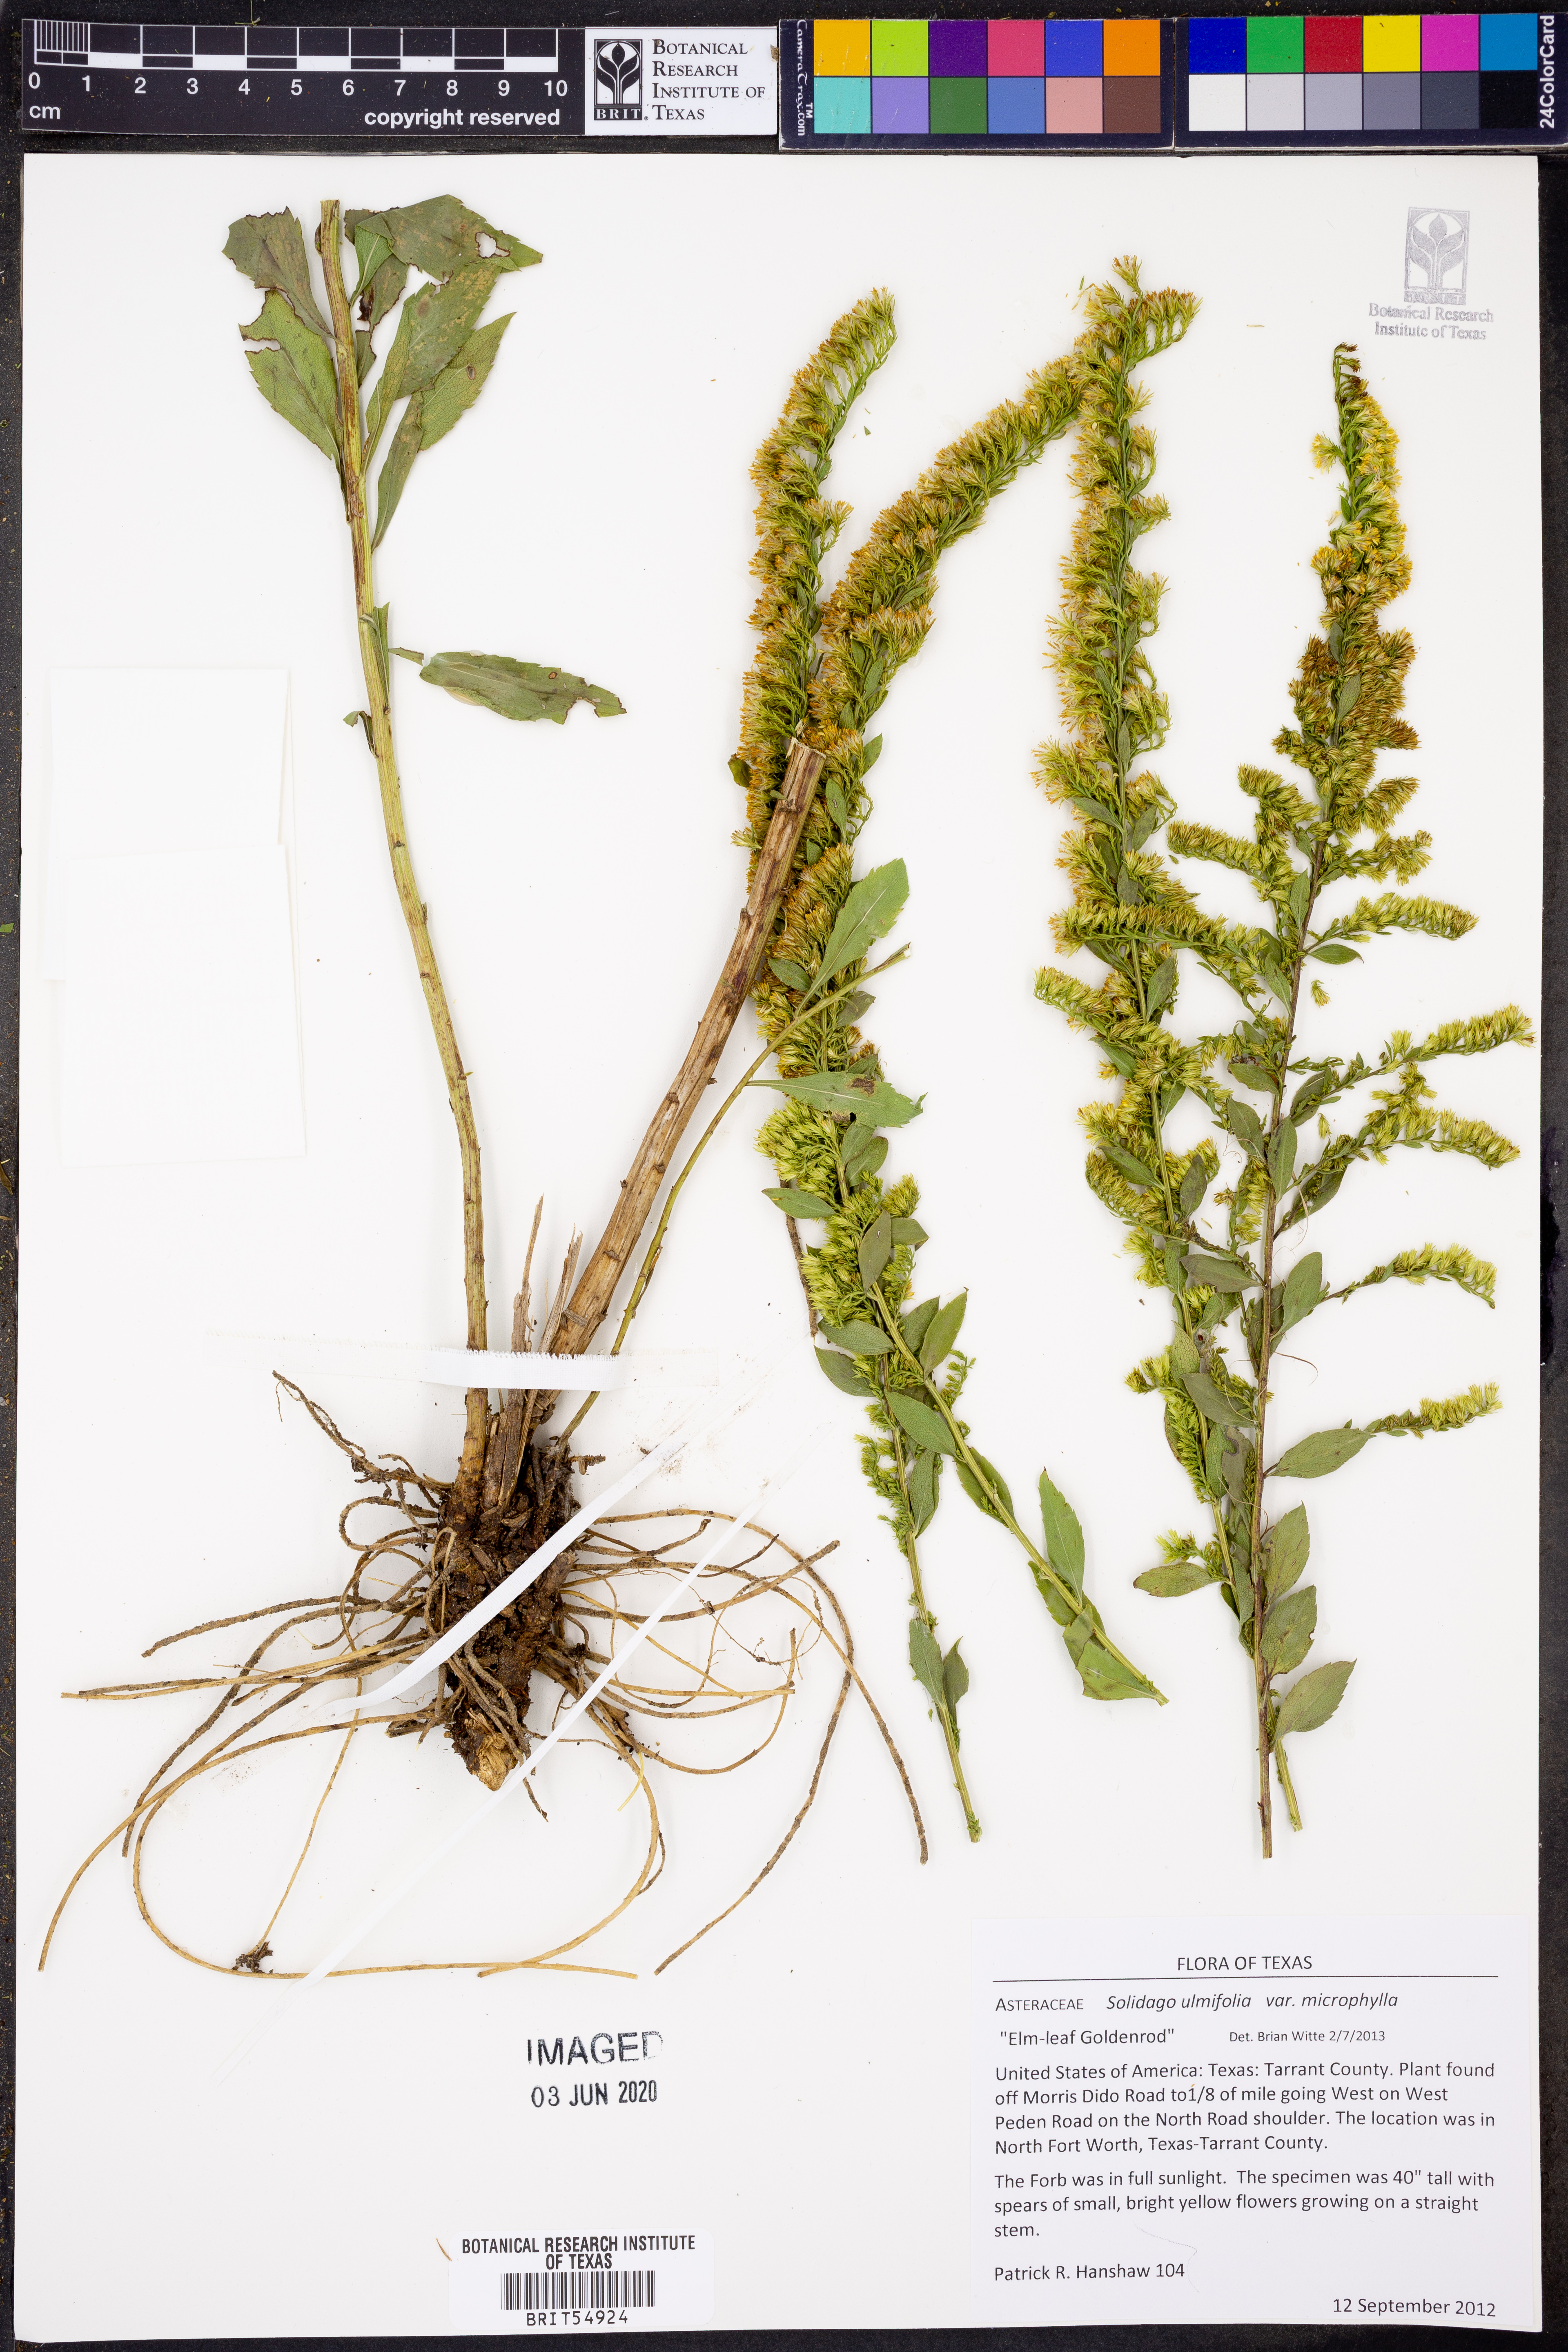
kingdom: Plantae
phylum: Tracheophyta
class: Magnoliopsida
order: Asterales
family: Asteraceae
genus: Solidago
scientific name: Solidago delicatula
